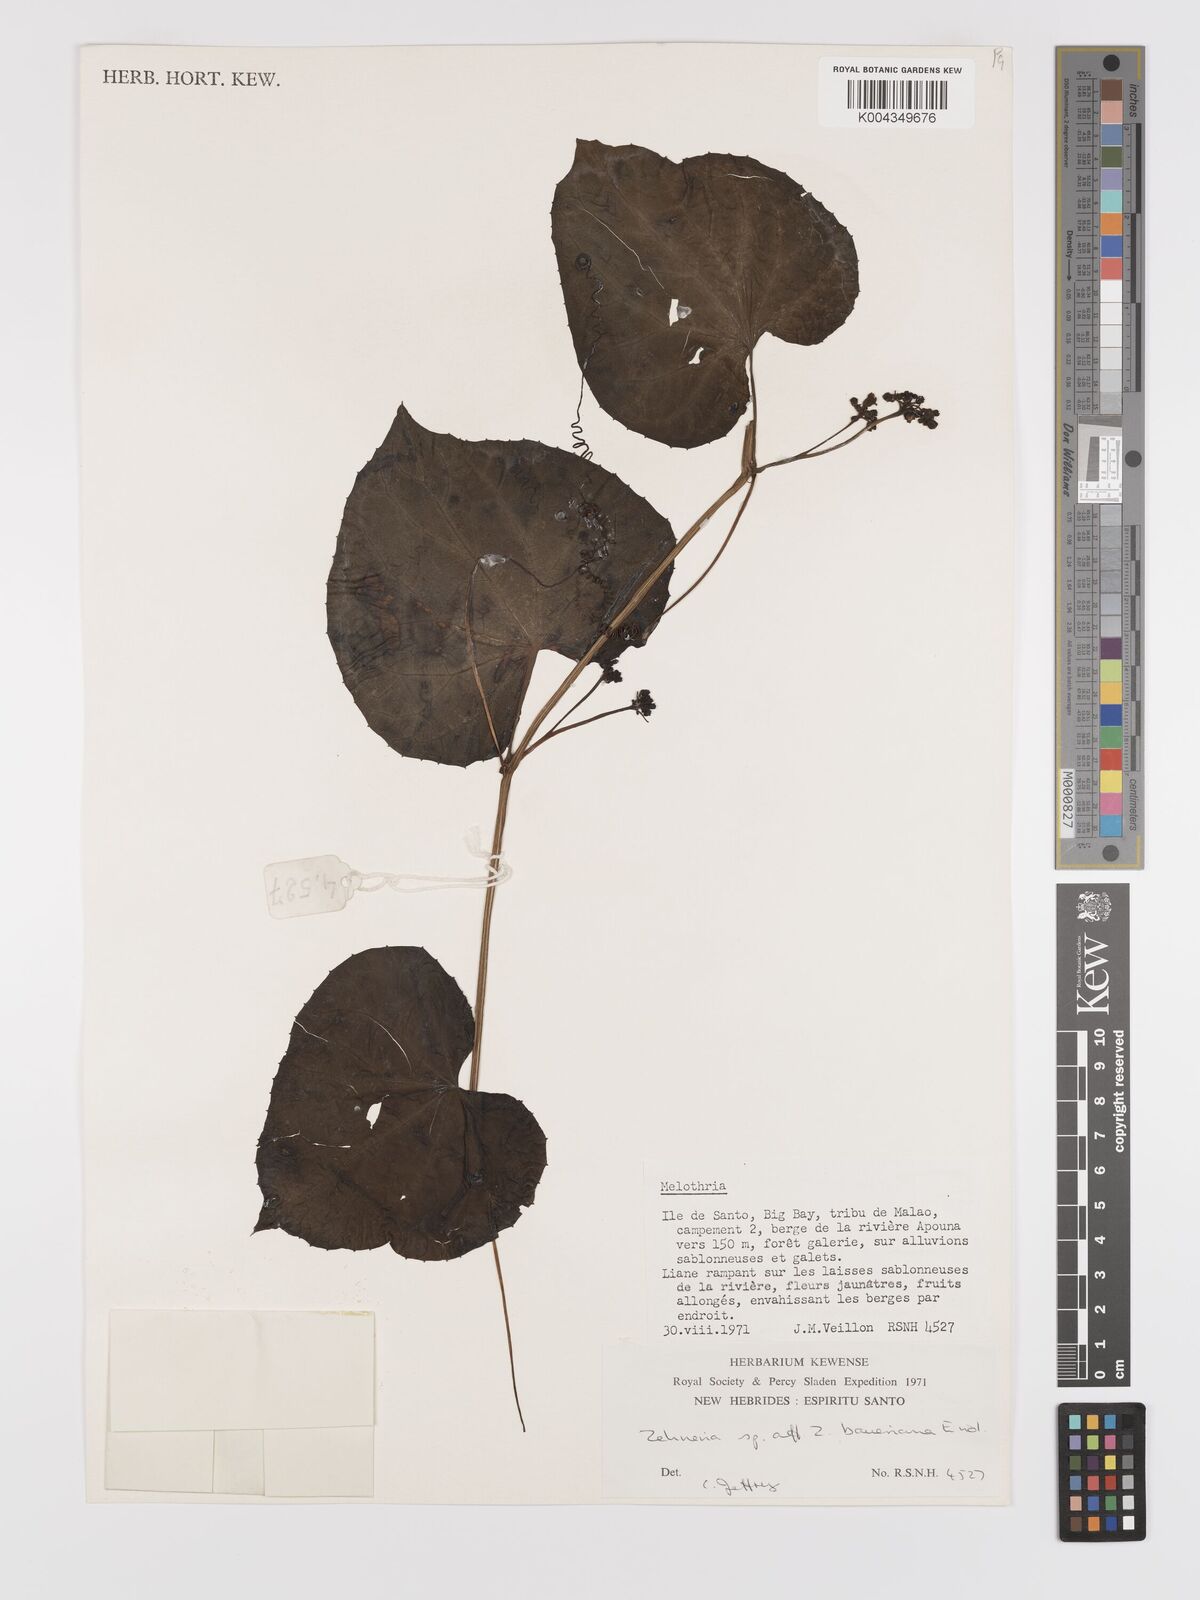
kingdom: Plantae
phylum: Tracheophyta
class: Magnoliopsida
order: Cucurbitales
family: Cucurbitaceae
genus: Zehneria
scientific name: Zehneria mucronata
